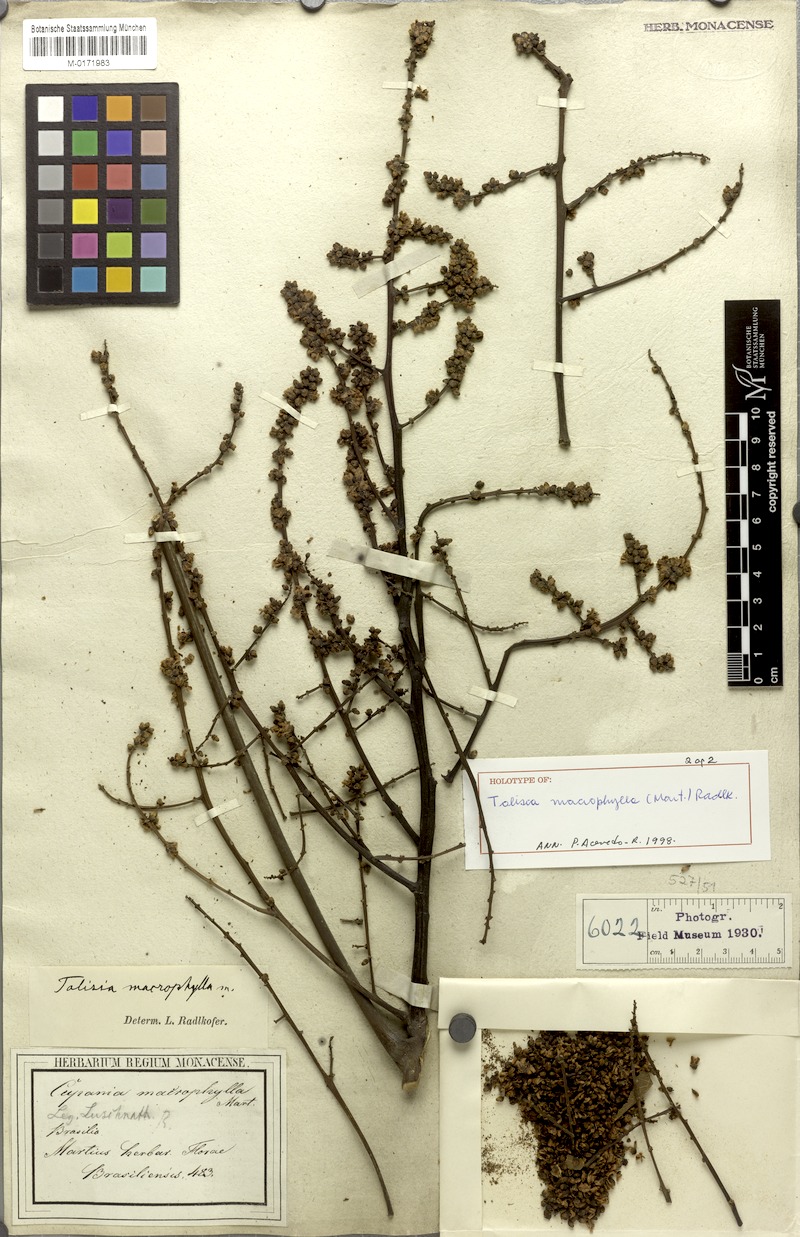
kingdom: Plantae
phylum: Tracheophyta
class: Magnoliopsida
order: Sapindales
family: Sapindaceae
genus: Talisia
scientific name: Talisia macrophylla
